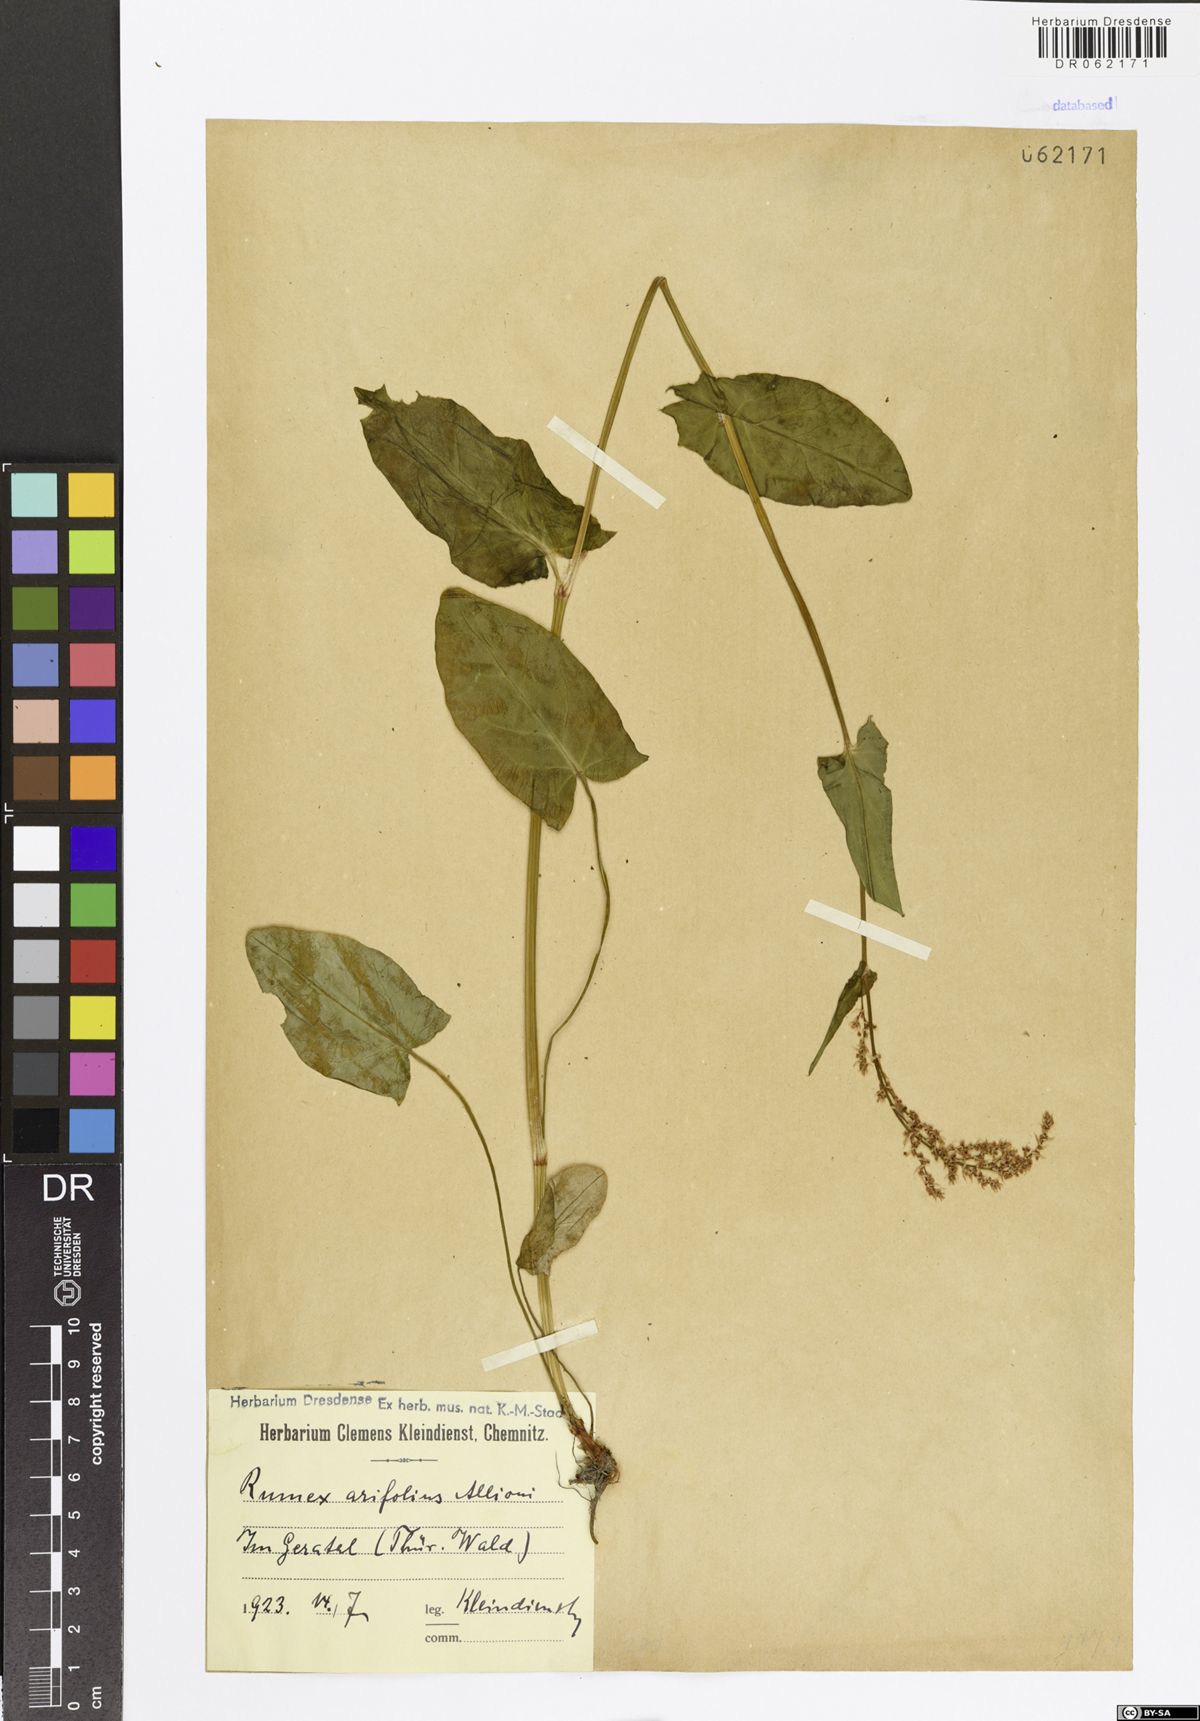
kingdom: Plantae
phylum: Tracheophyta
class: Magnoliopsida
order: Caryophyllales
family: Polygonaceae
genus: Rumex
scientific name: Rumex arifolius
